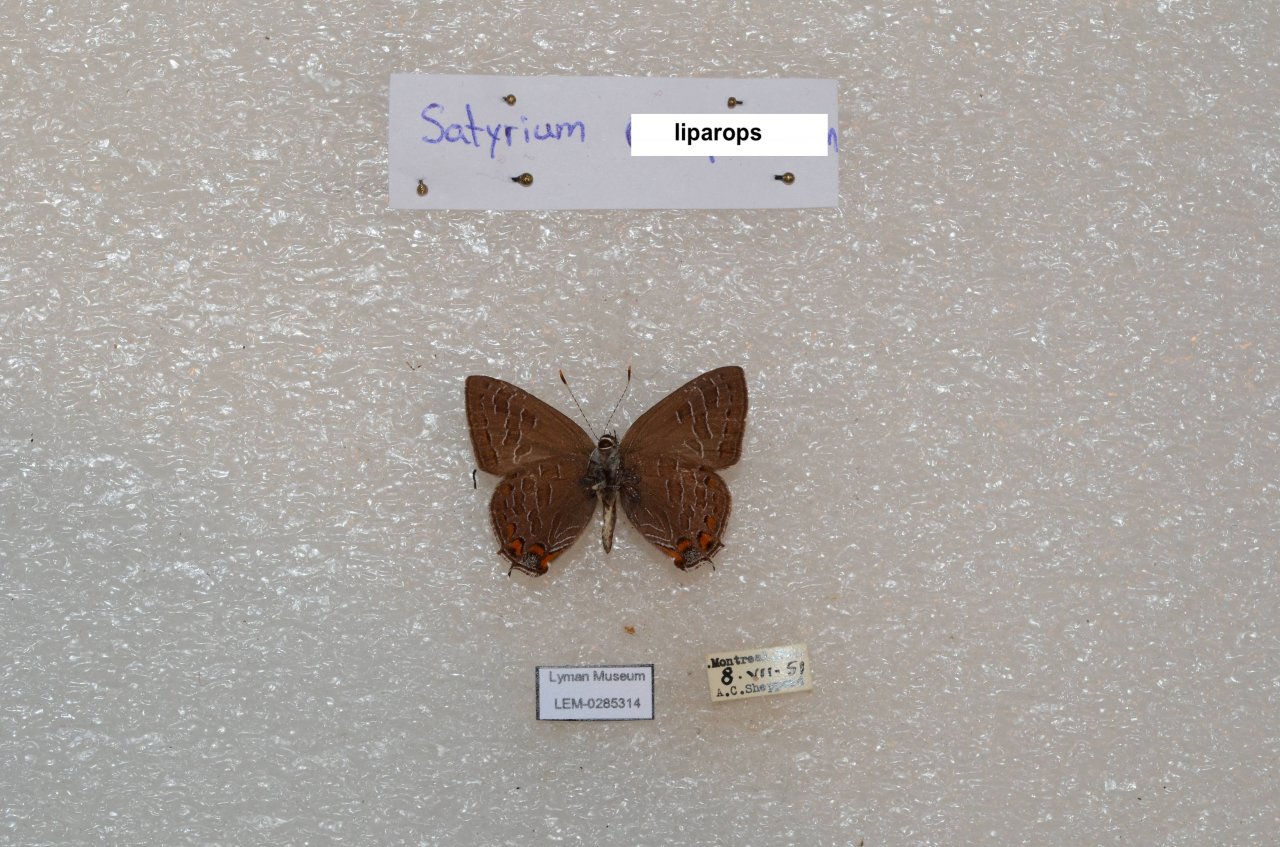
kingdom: Animalia
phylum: Arthropoda
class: Insecta
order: Lepidoptera
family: Lycaenidae
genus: Satyrium
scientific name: Satyrium liparops
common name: Striped Hairstreak
